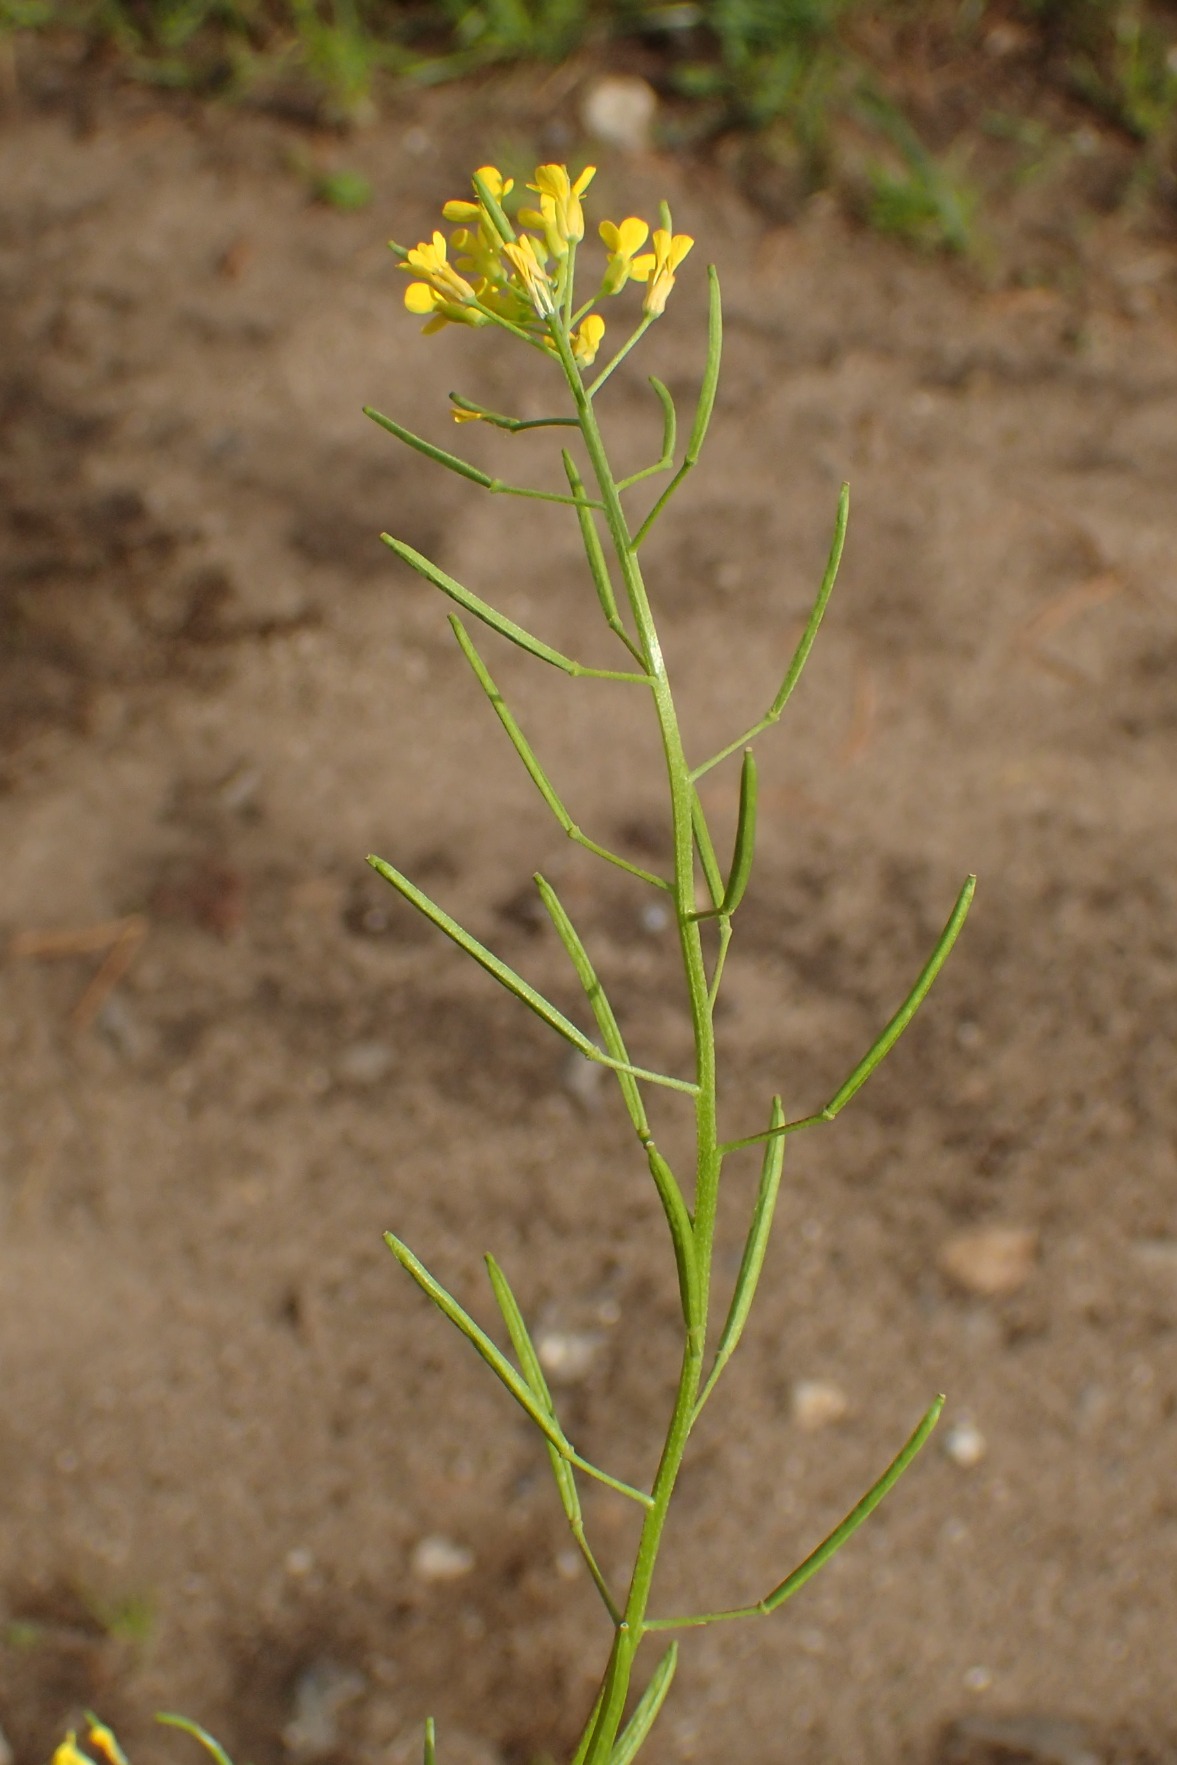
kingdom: Plantae
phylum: Tracheophyta
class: Magnoliopsida
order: Brassicales
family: Brassicaceae
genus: Erysimum
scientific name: Erysimum cheiranthoides
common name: Gyldenlak-hjørneklap
